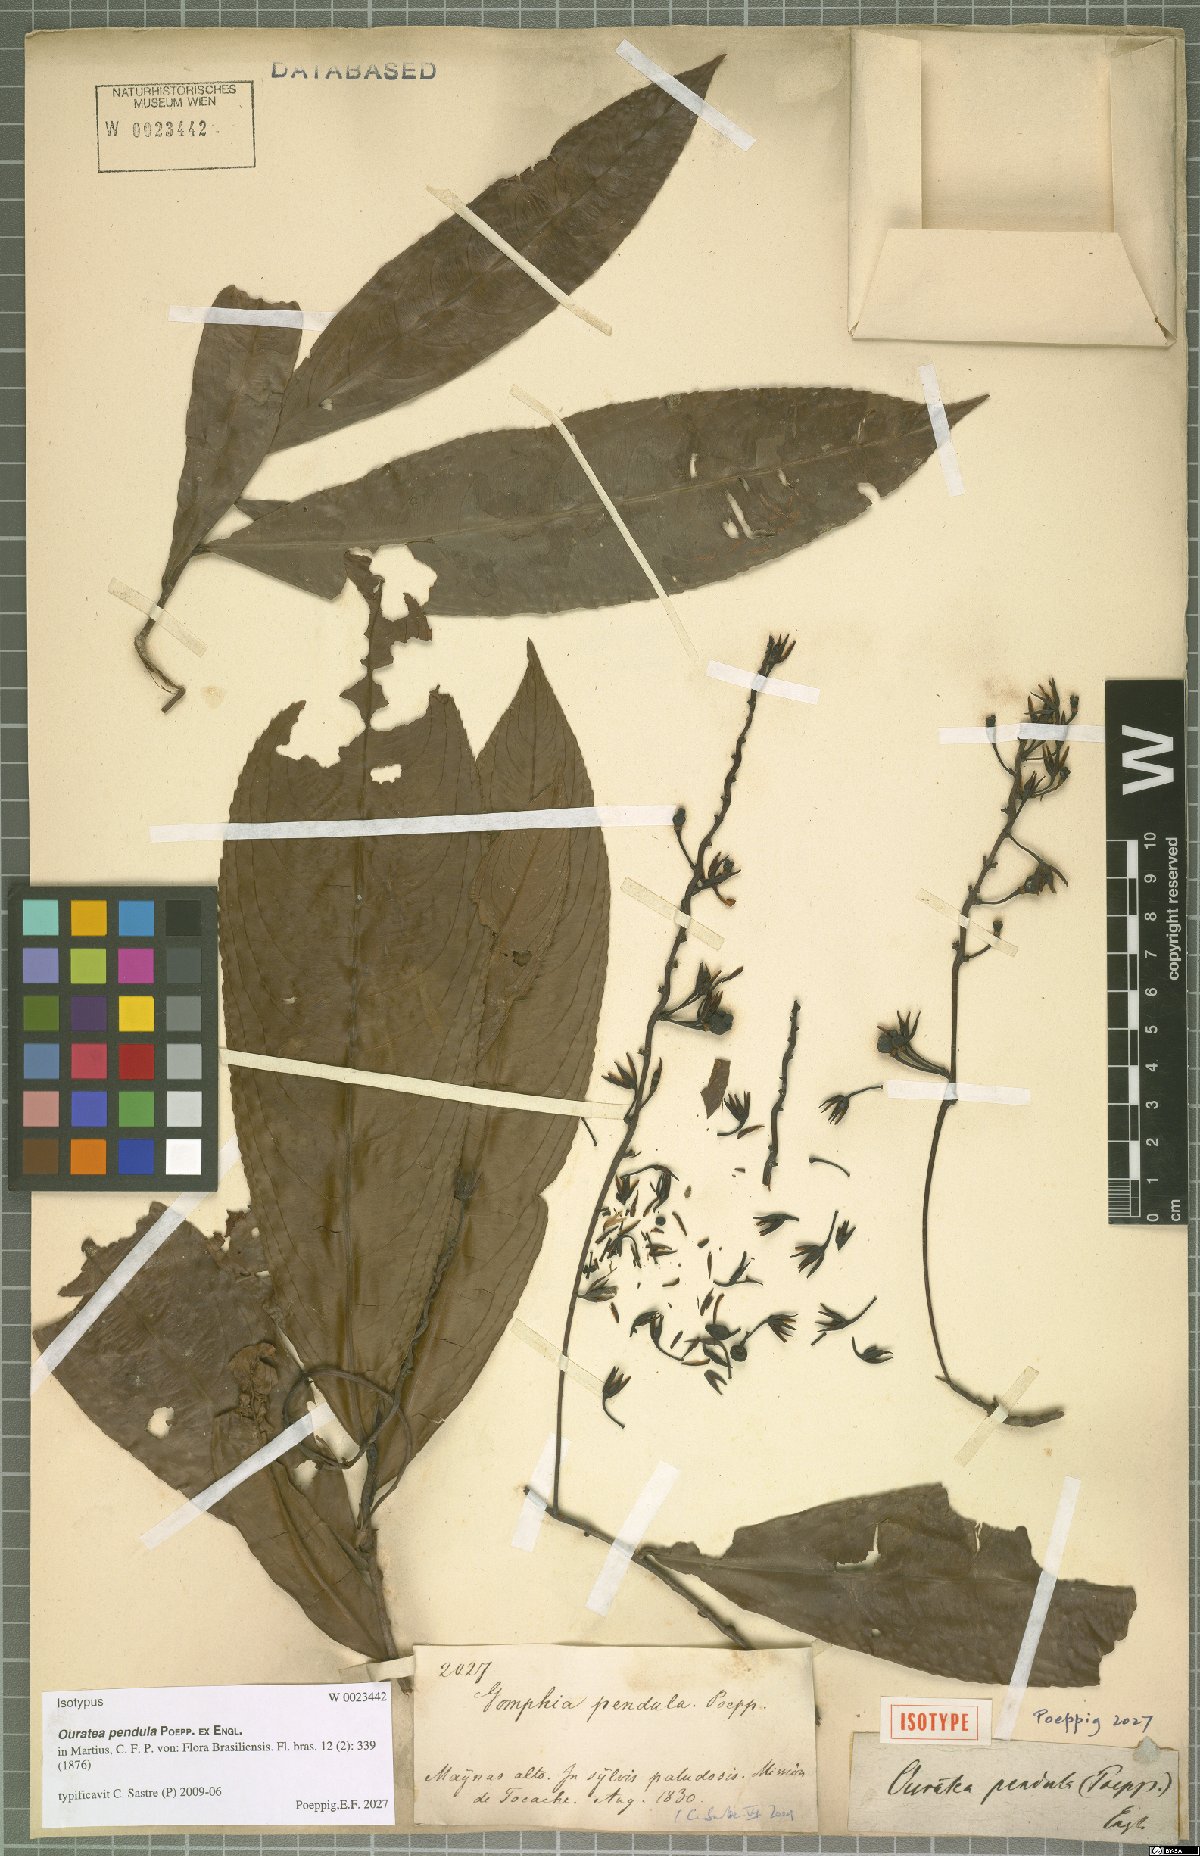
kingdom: Plantae
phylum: Tracheophyta
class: Magnoliopsida
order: Malpighiales
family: Ochnaceae
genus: Ouratea
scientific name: Ouratea pendula
